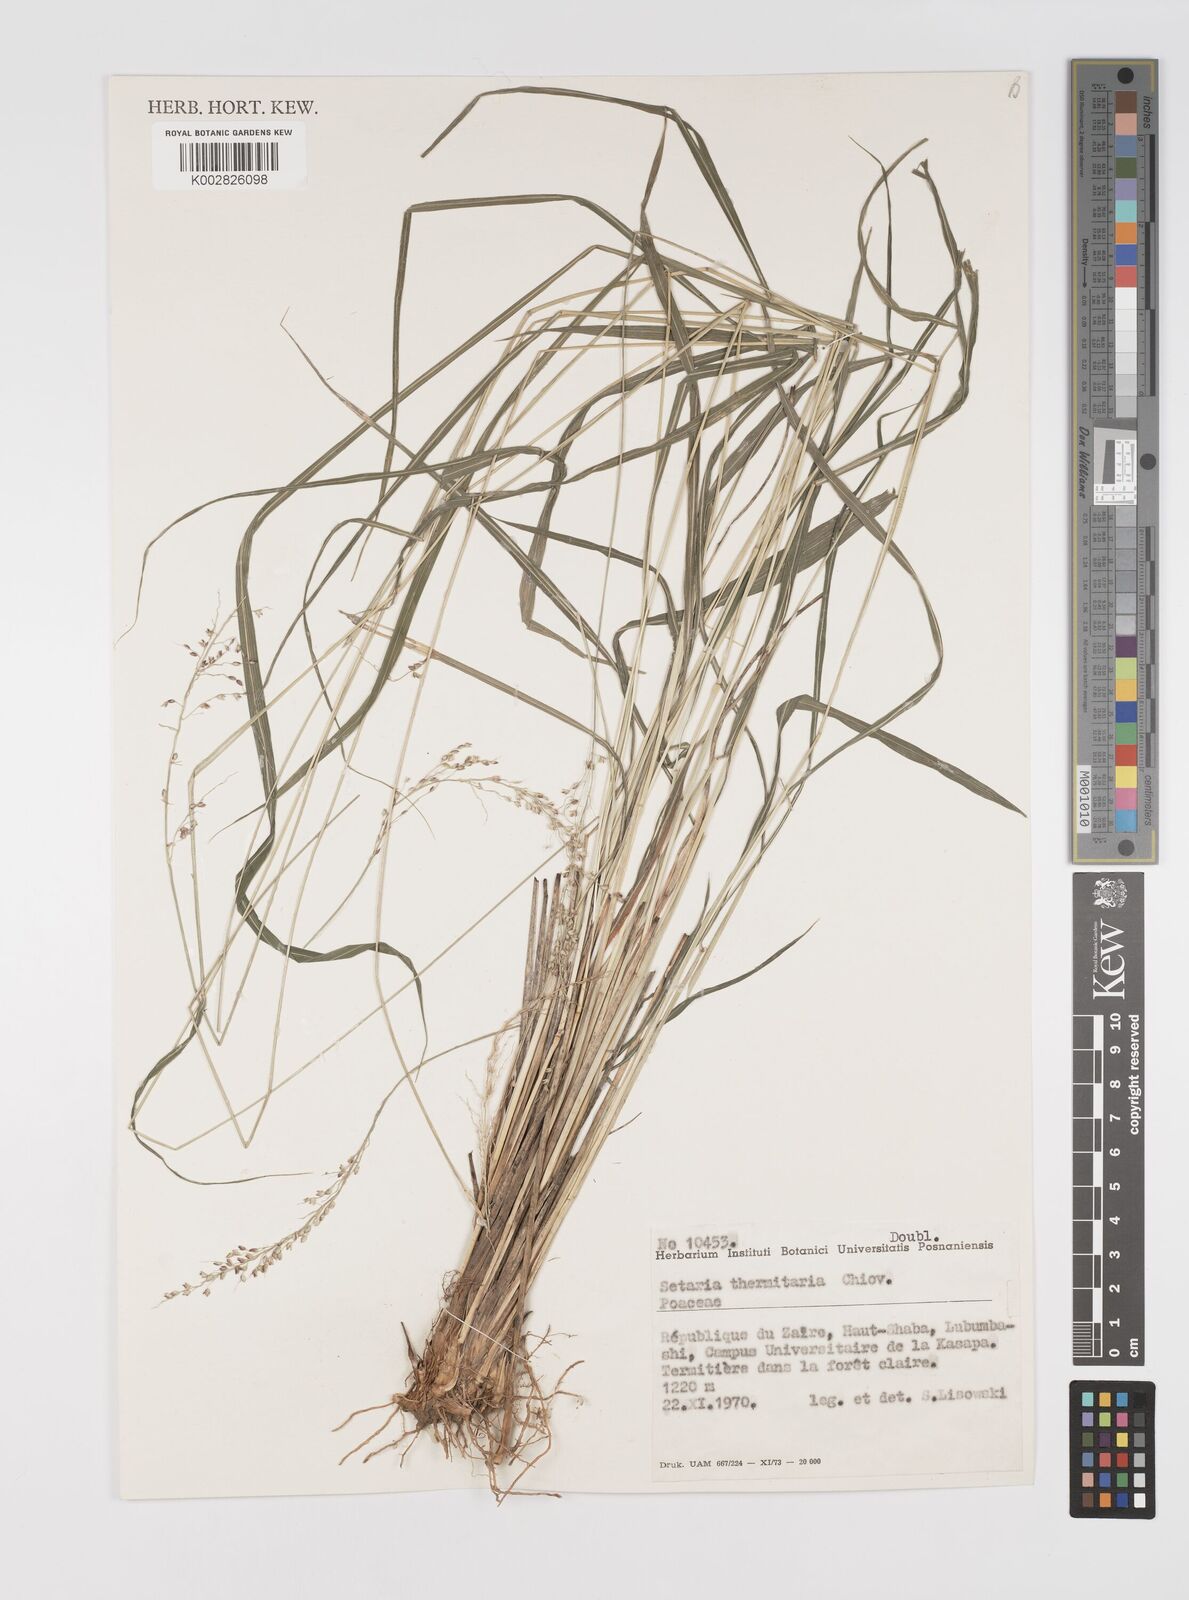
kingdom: Plantae
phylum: Tracheophyta
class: Liliopsida
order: Poales
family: Poaceae
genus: Setaria
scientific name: Setaria lindenbergiana
